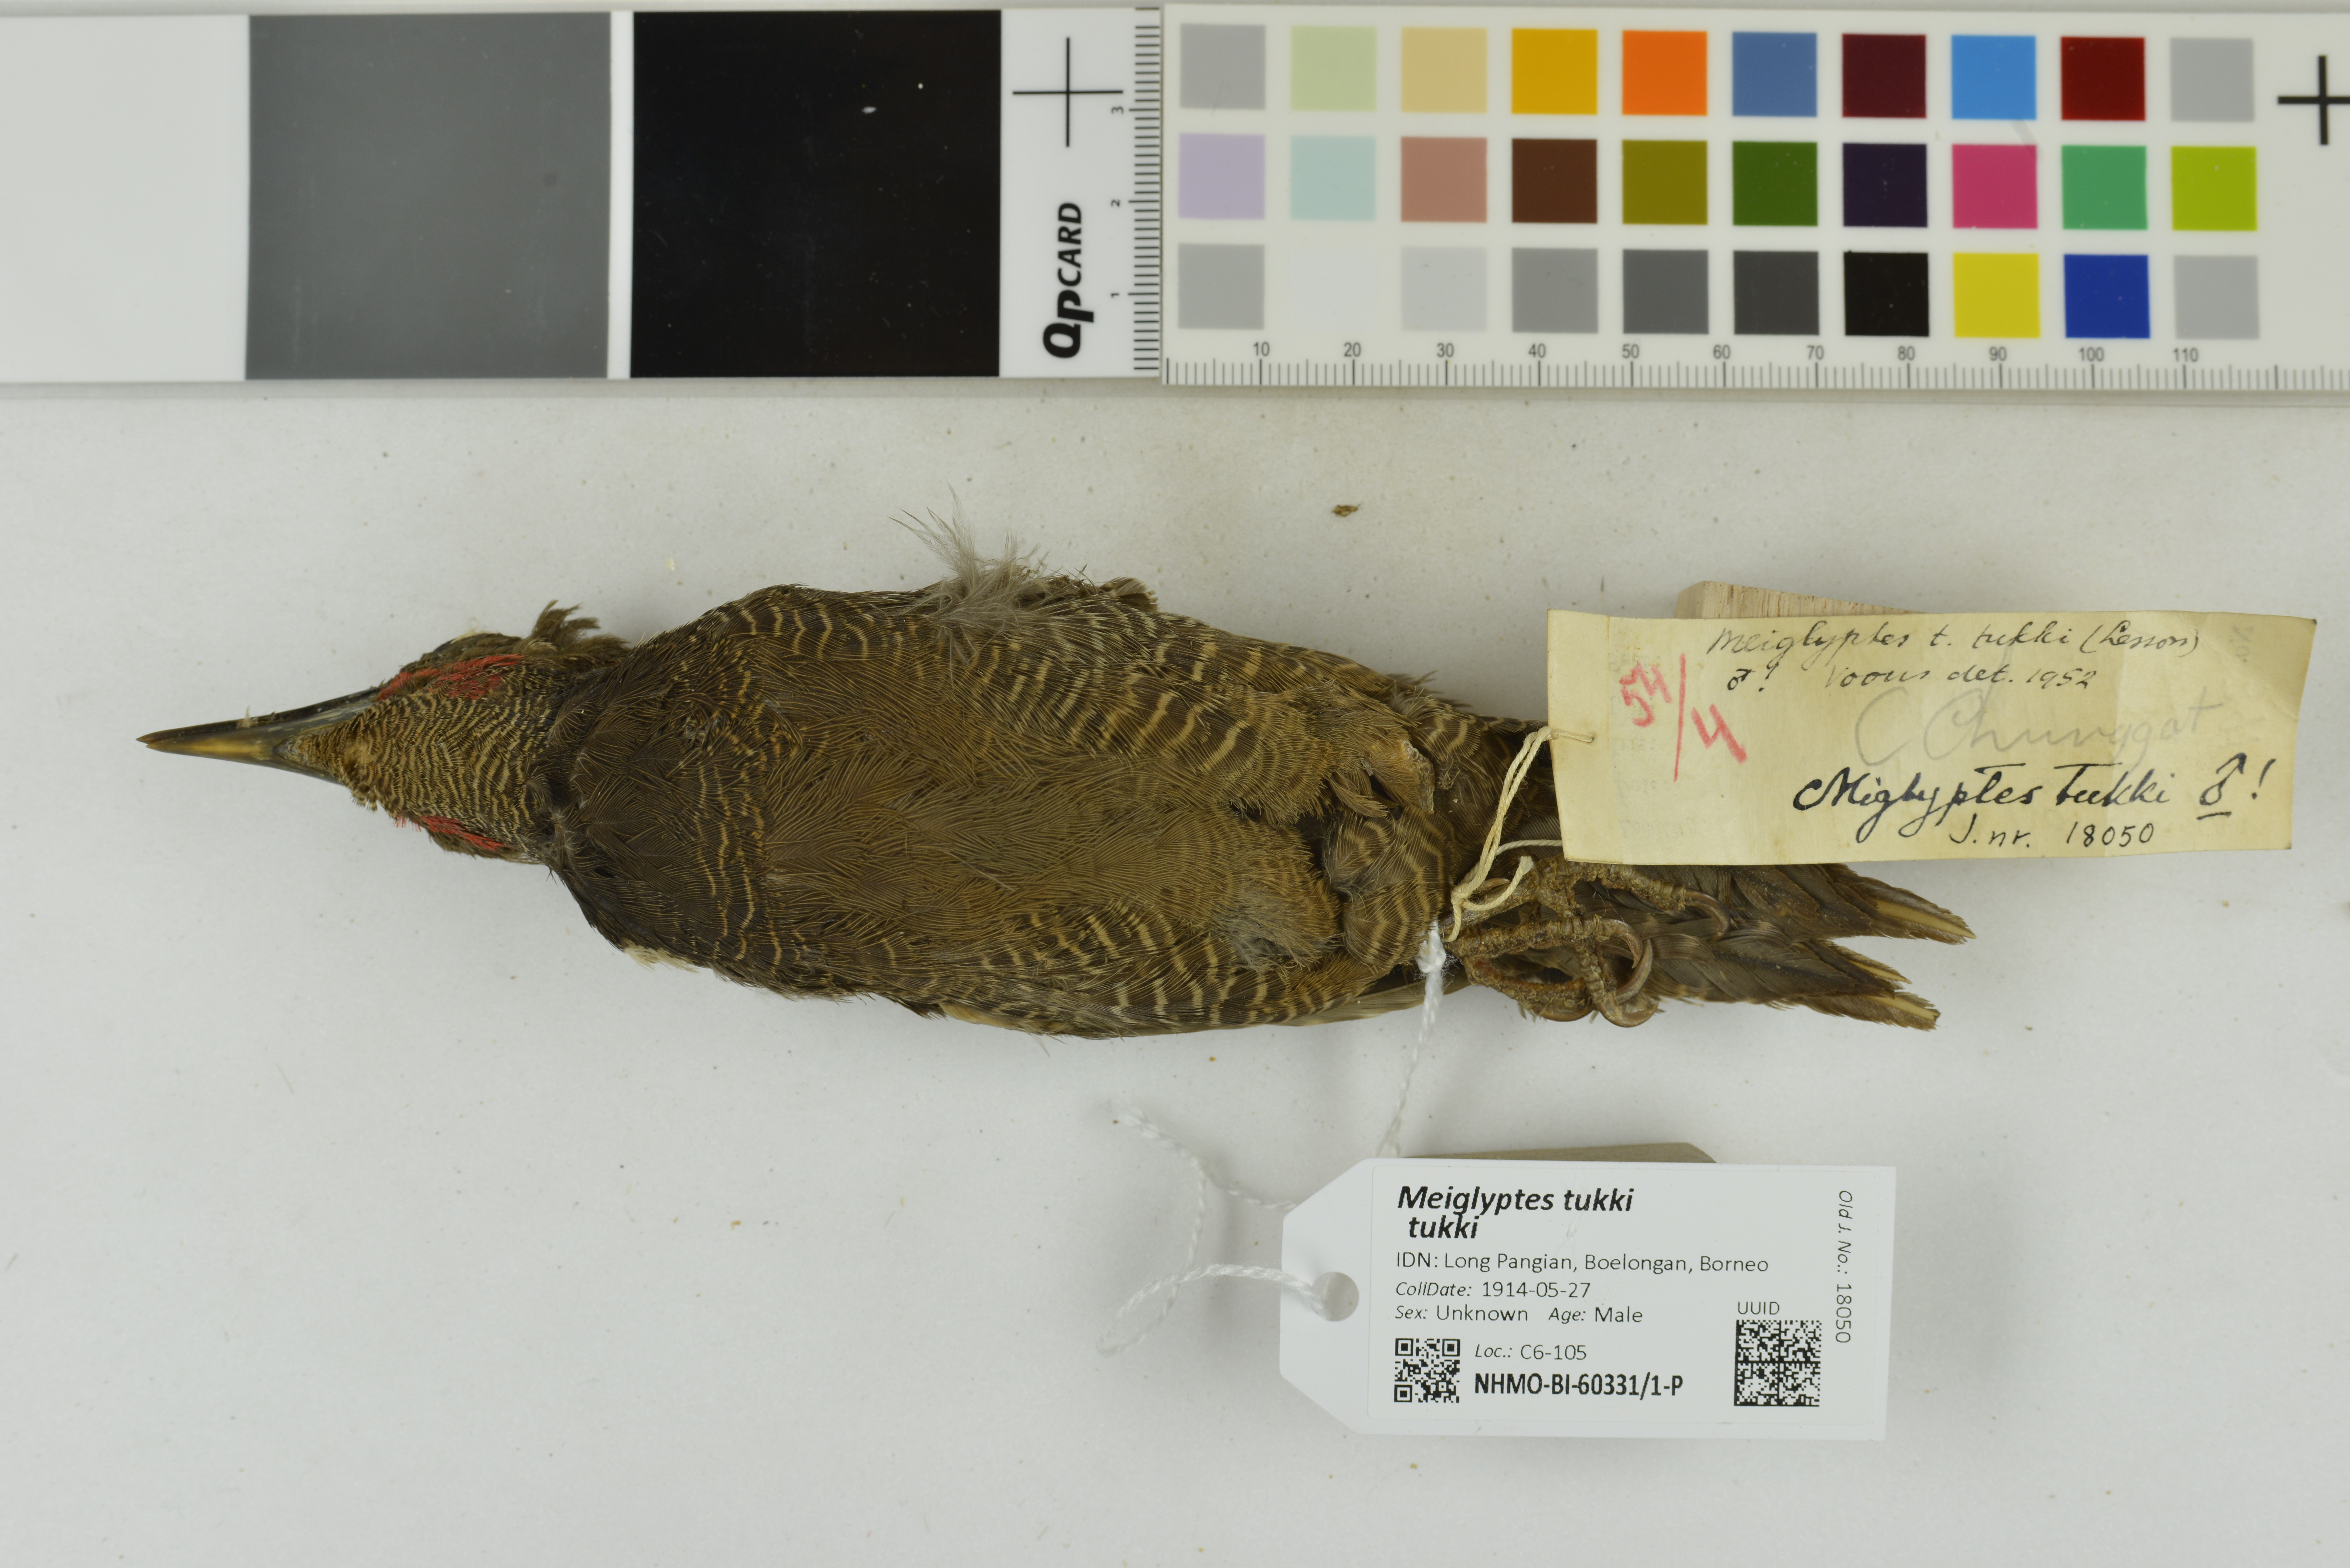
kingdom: Animalia
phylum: Chordata
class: Aves
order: Piciformes
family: Picidae
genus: Meiglyptes
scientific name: Meiglyptes tukki
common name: Buff-necked woodpecker
